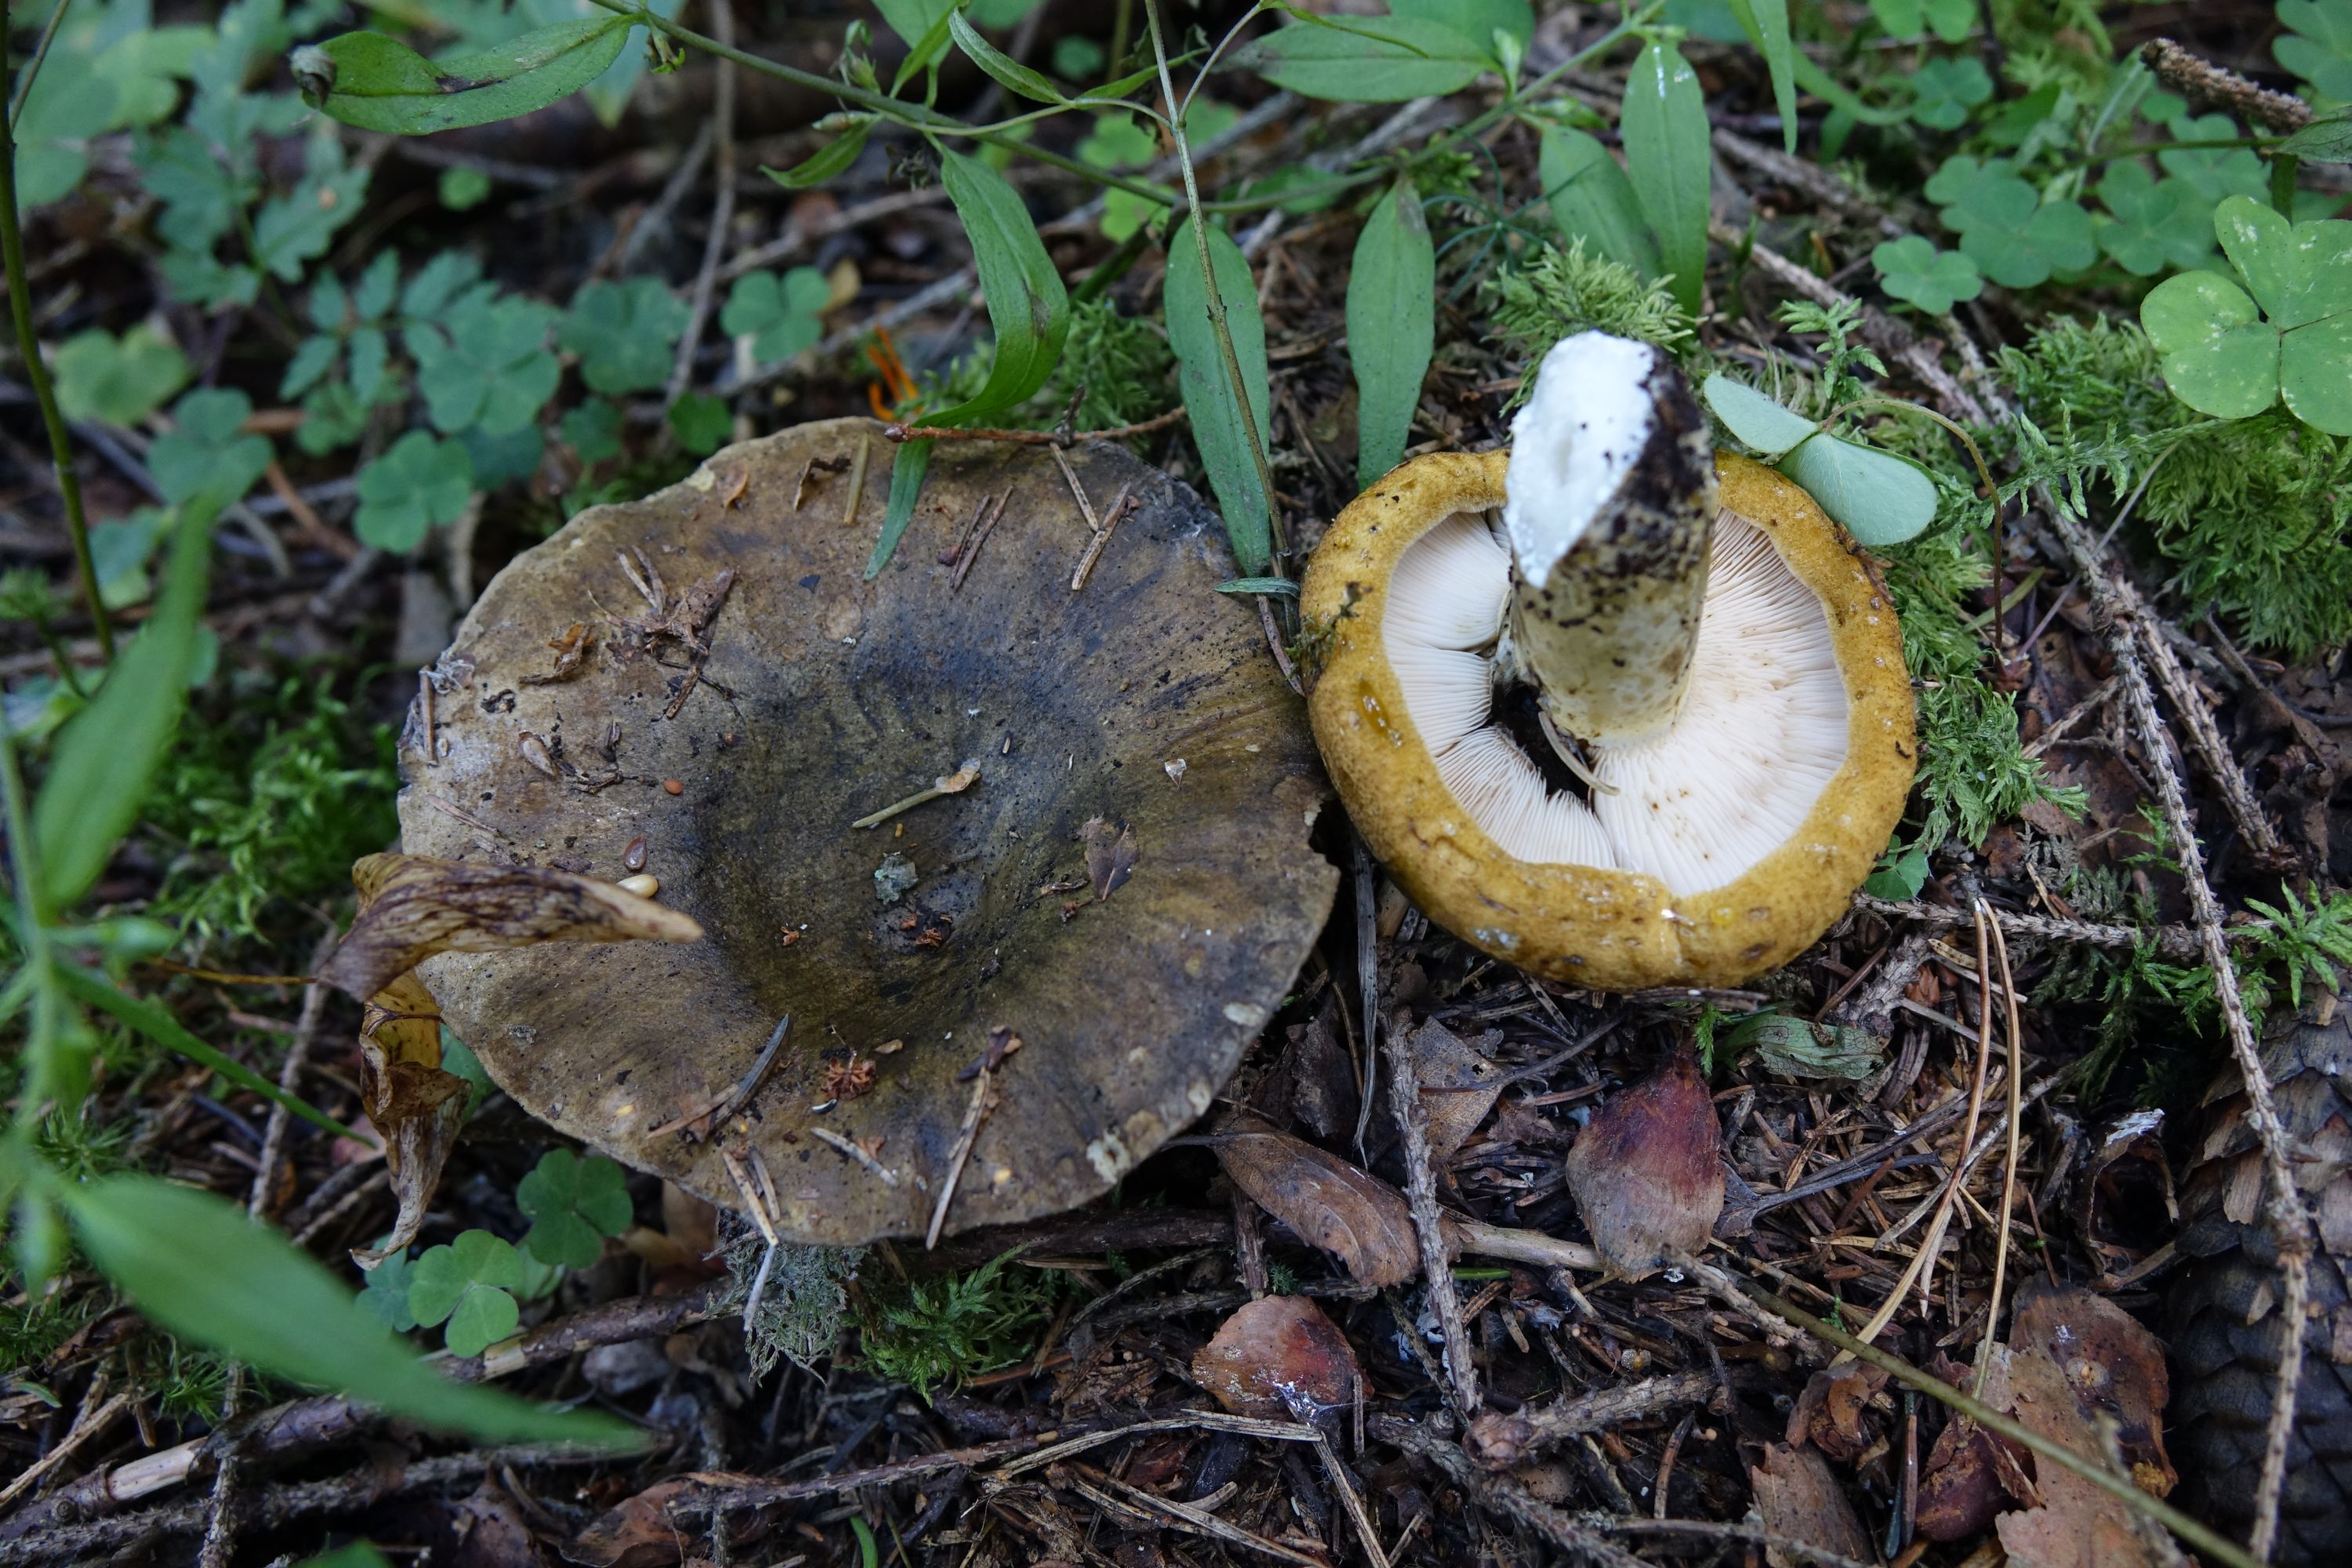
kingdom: Fungi
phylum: Basidiomycota
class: Agaricomycetes
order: Russulales
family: Russulaceae
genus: Lactarius
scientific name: Lactarius turpis
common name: Ugly milk-cap
